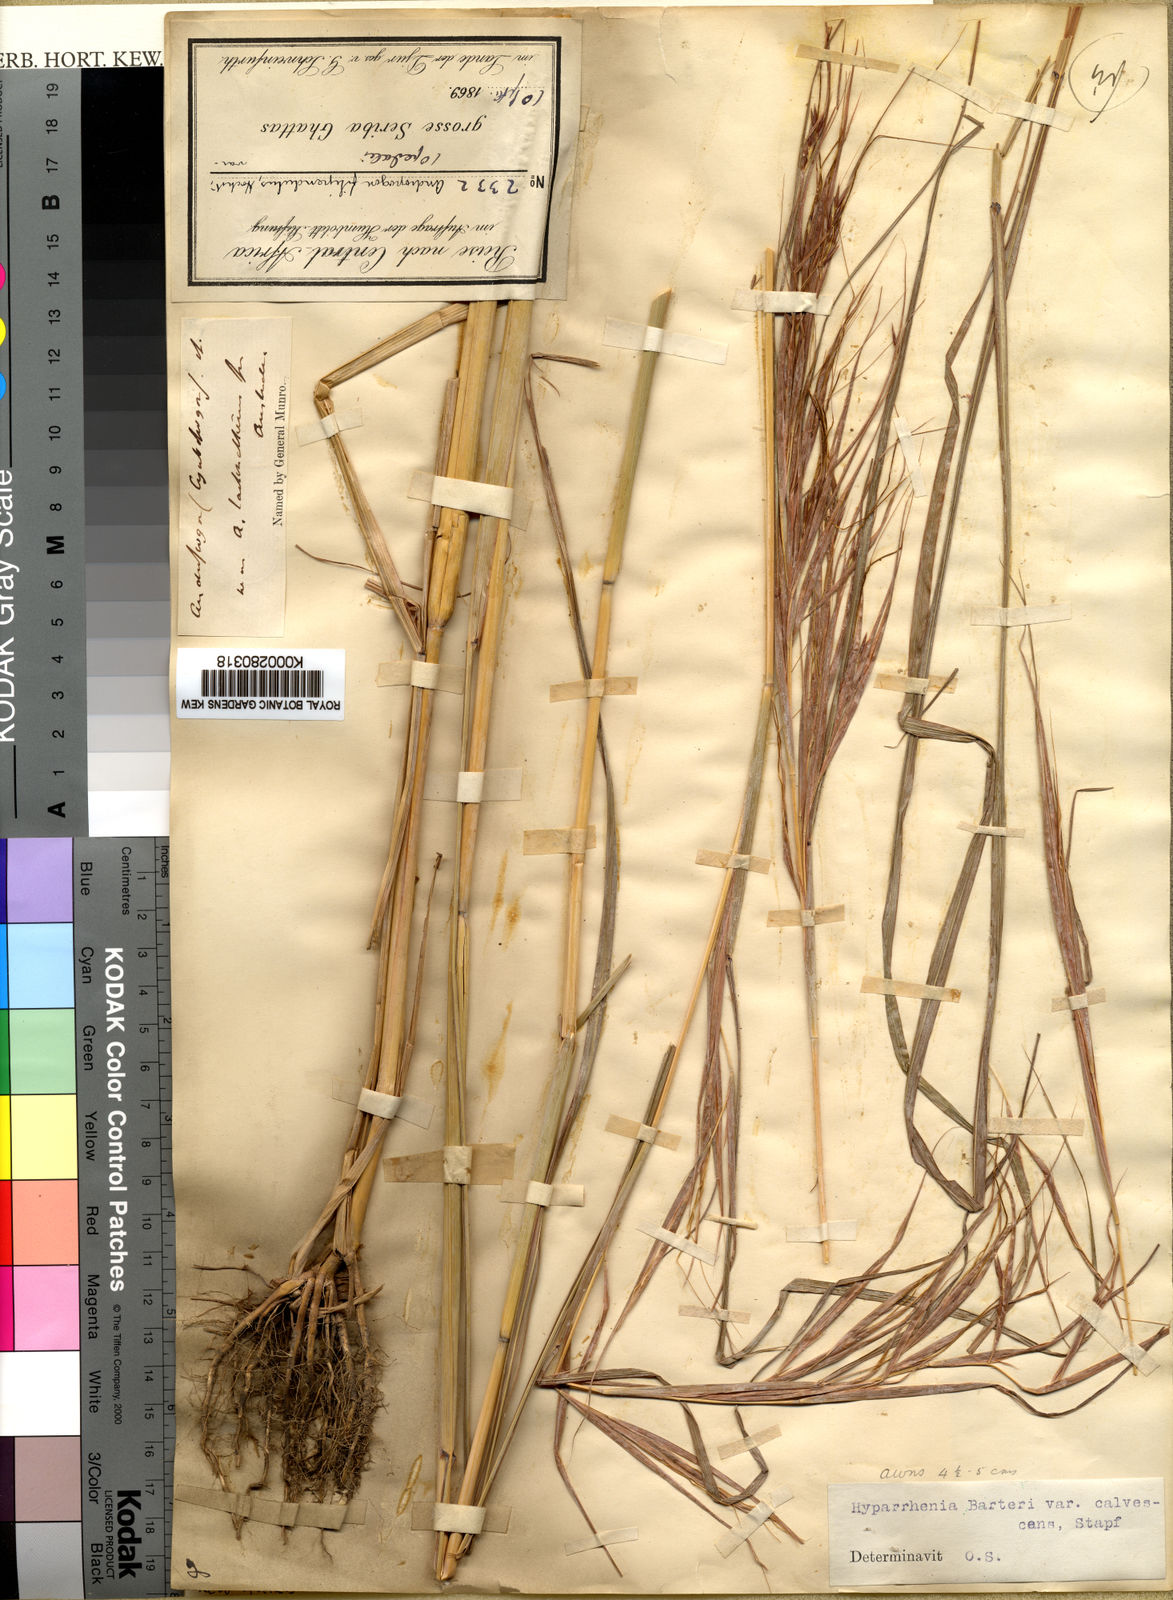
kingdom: Plantae
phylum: Tracheophyta
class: Liliopsida
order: Poales
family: Poaceae
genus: Hyparrhenia
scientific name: Hyparrhenia figariana
